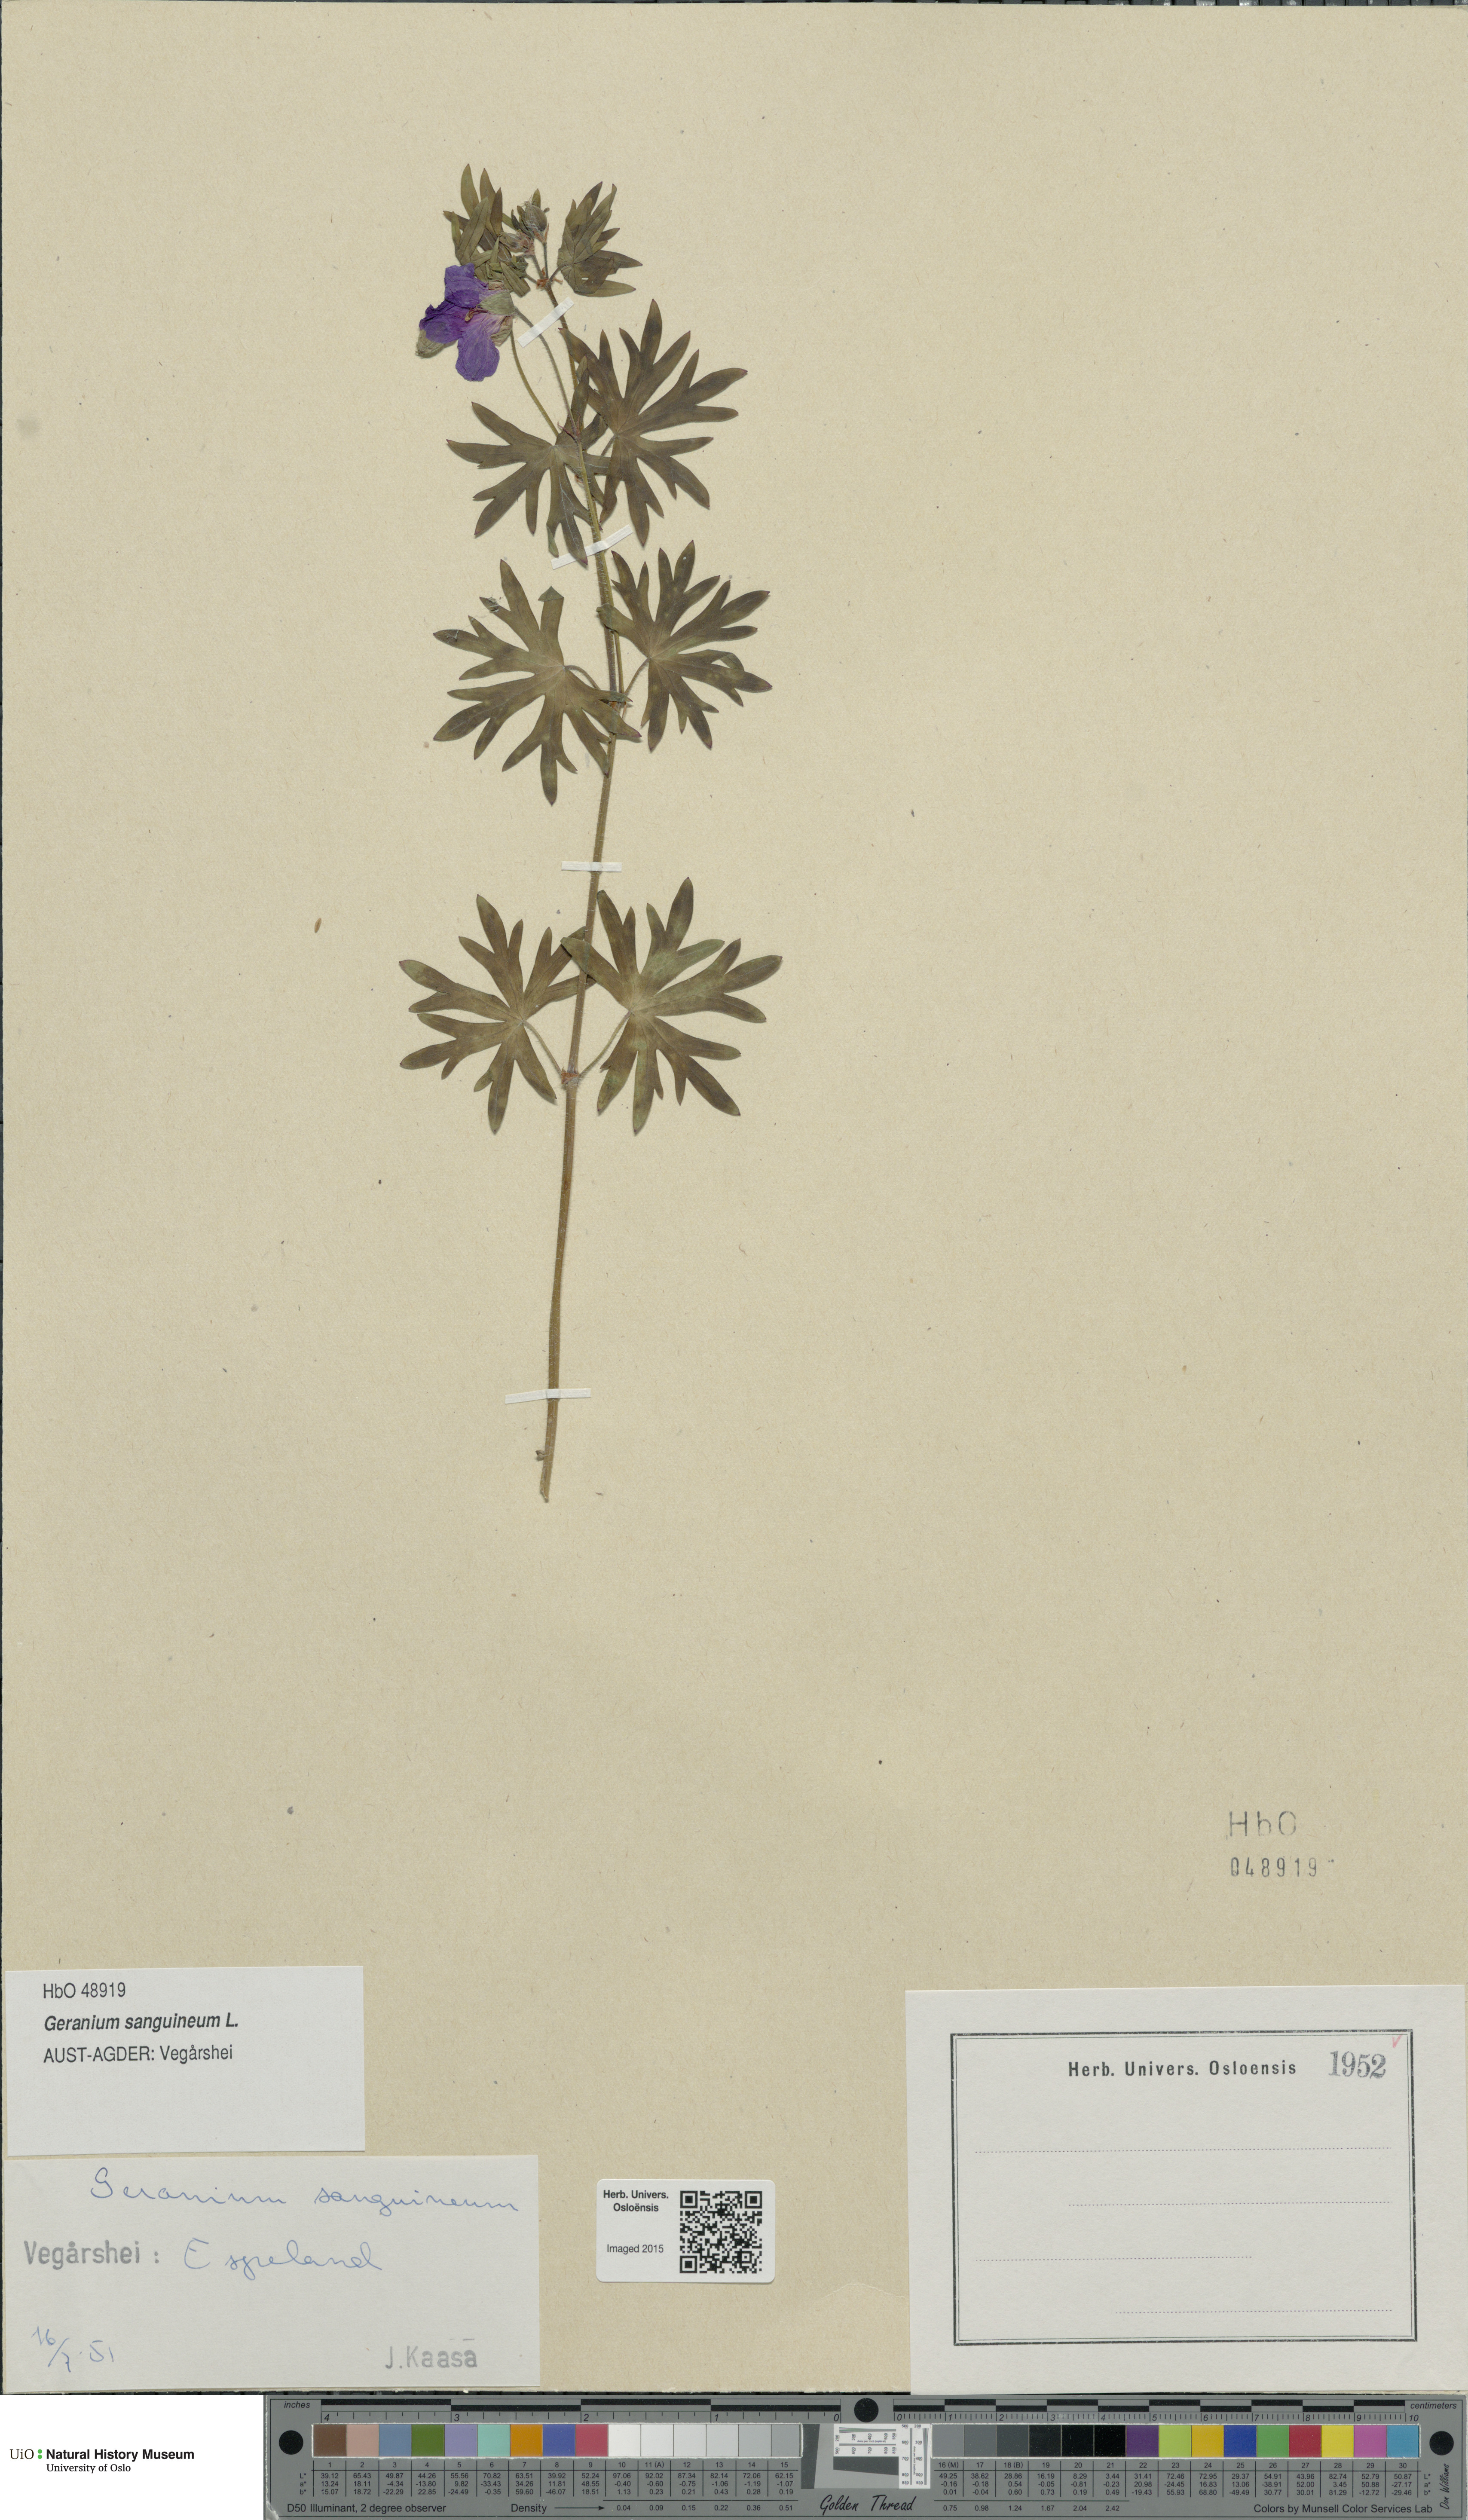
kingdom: Plantae
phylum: Tracheophyta
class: Magnoliopsida
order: Geraniales
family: Geraniaceae
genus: Geranium
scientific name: Geranium sanguineum
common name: Bloody crane's-bill
